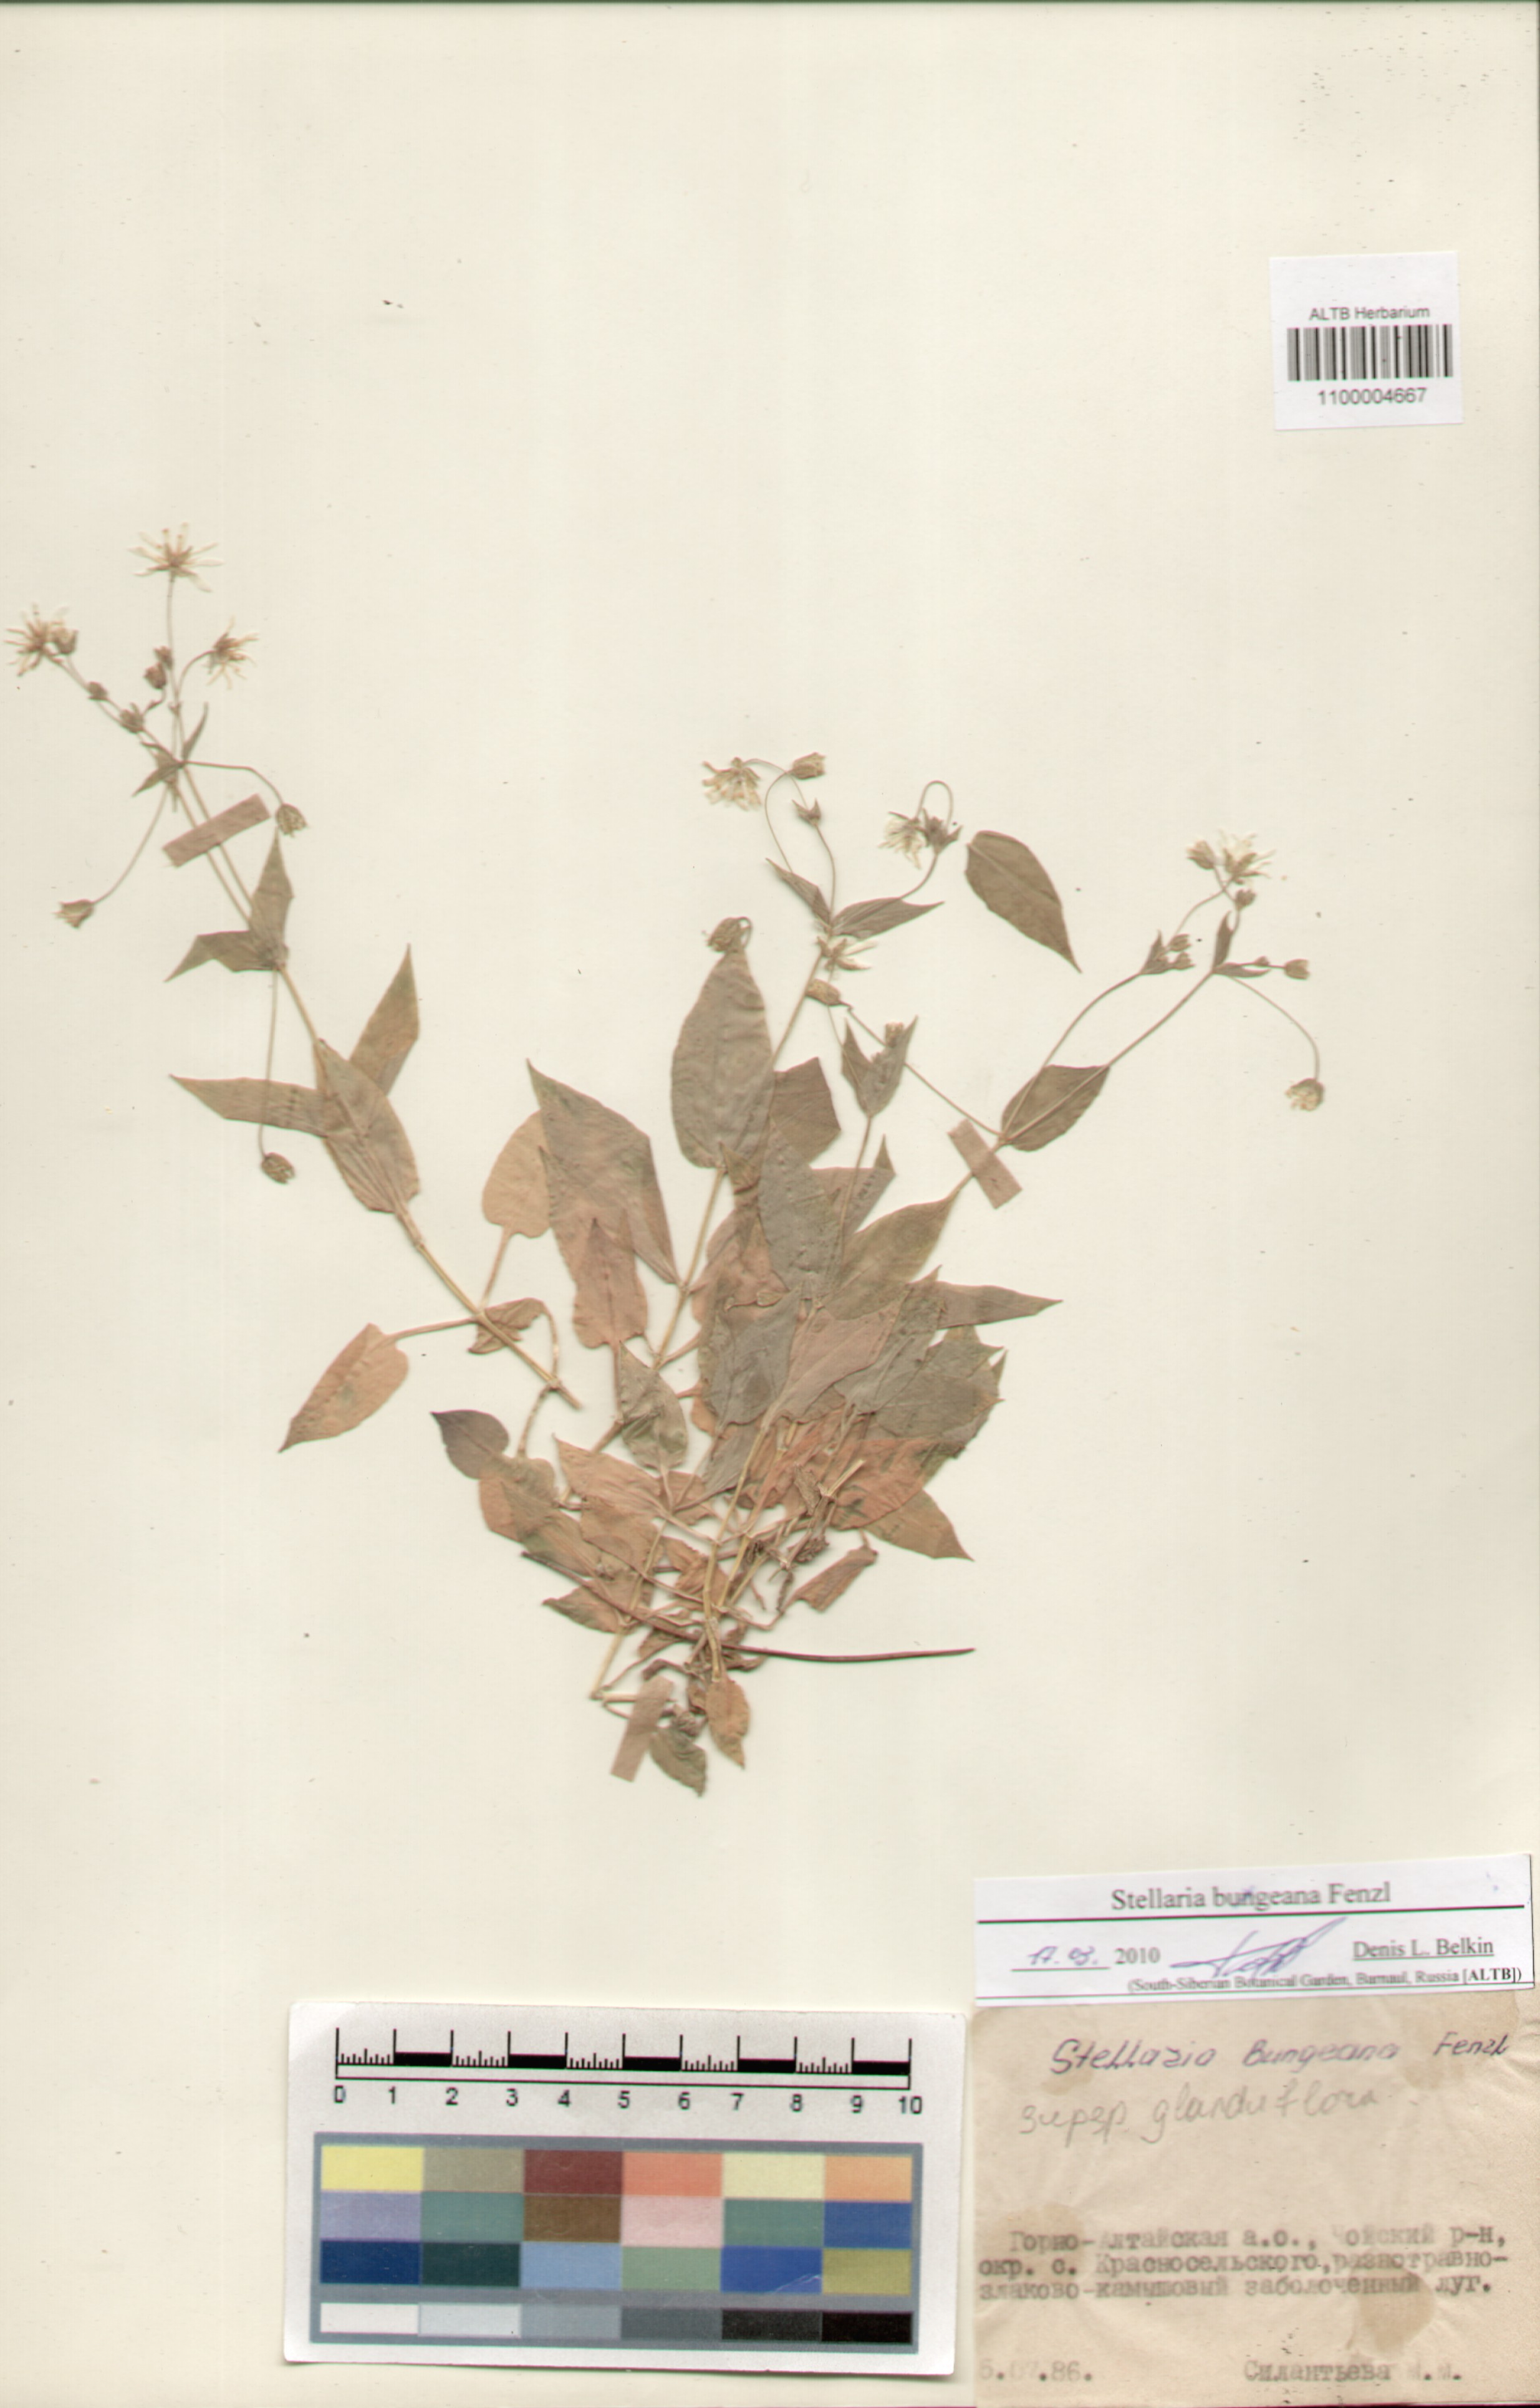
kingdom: Plantae
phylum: Tracheophyta
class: Magnoliopsida
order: Caryophyllales
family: Caryophyllaceae
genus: Stellaria
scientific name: Stellaria bungeana
